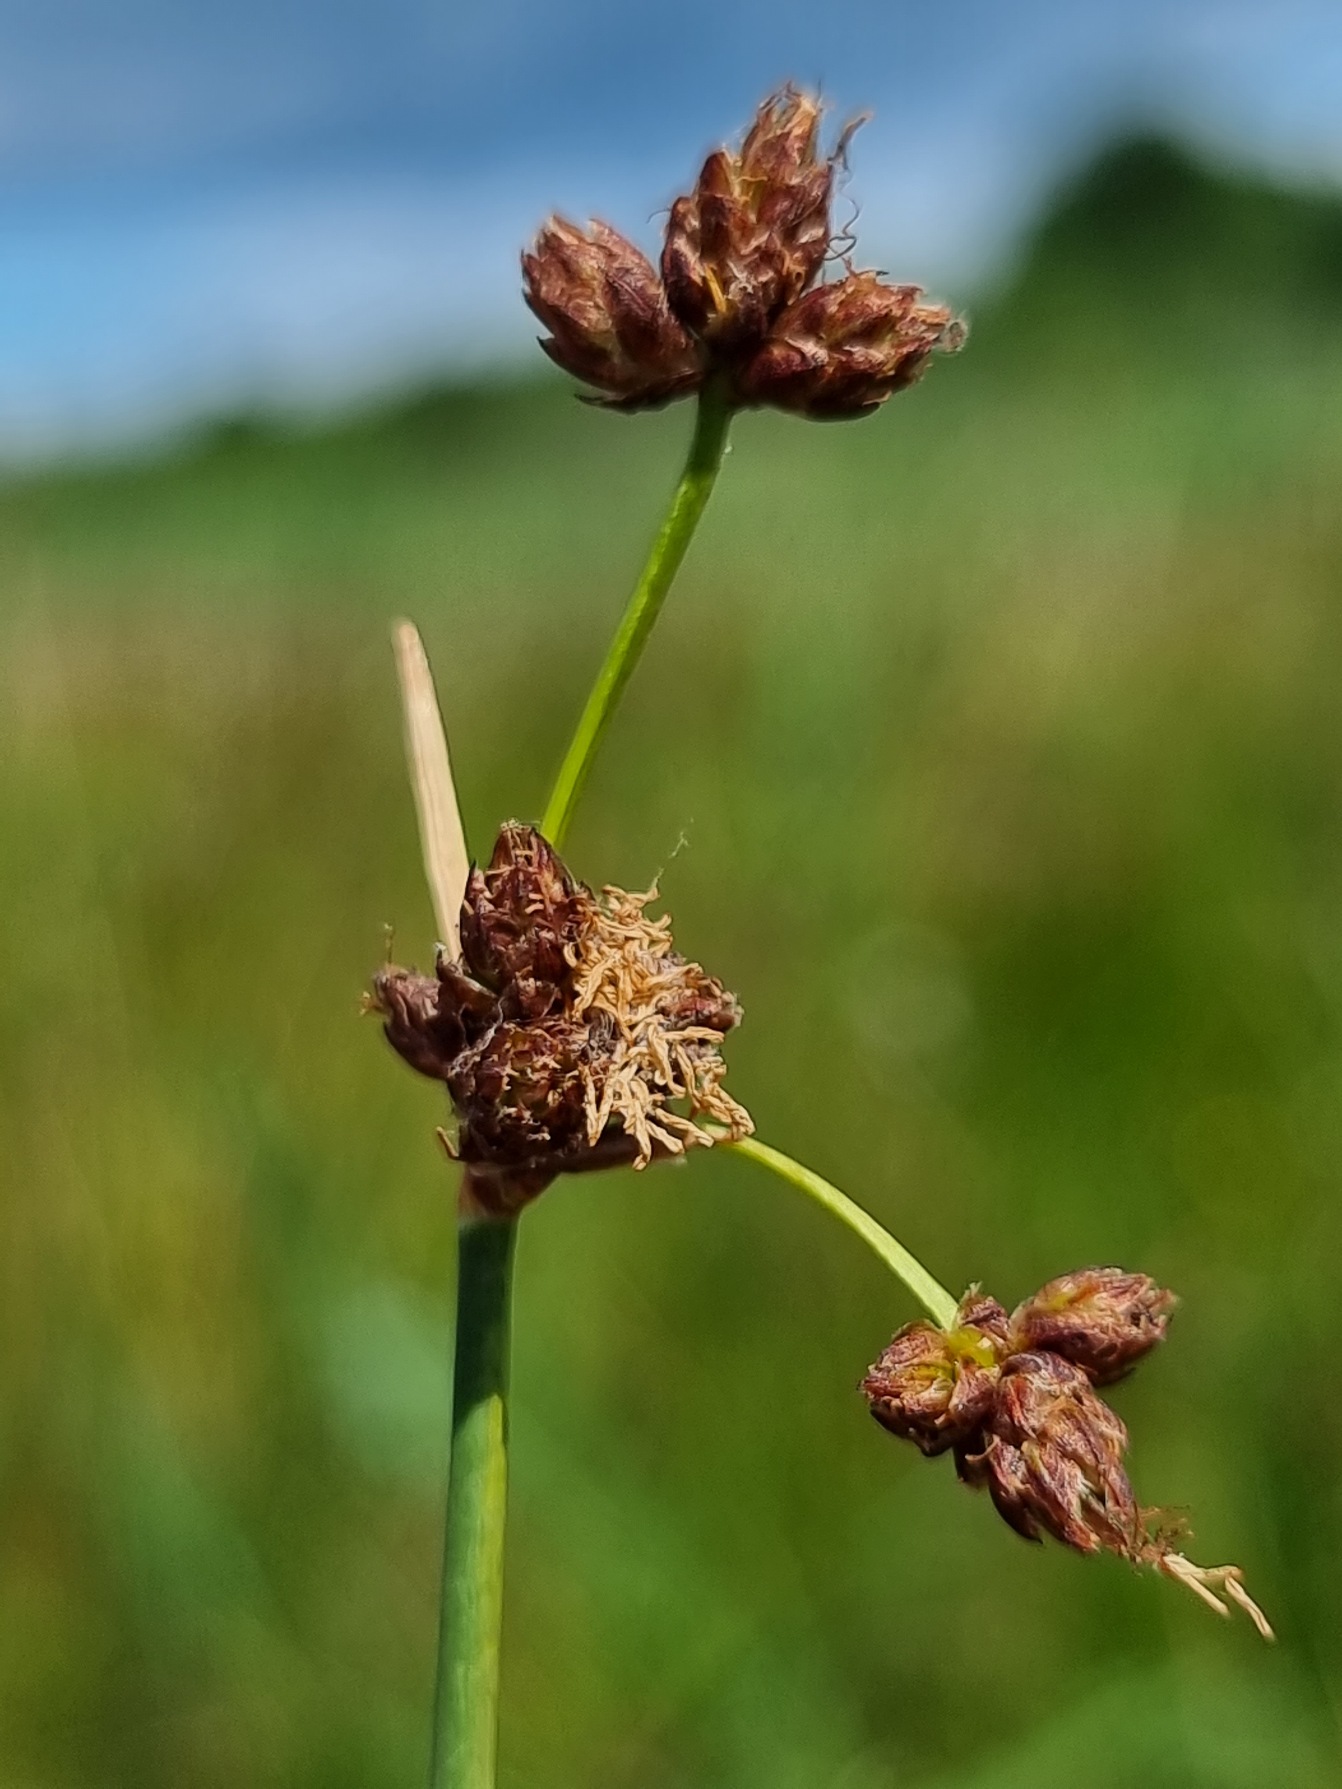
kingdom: Plantae
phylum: Tracheophyta
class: Liliopsida
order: Poales
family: Cyperaceae
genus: Schoenoplectus
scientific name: Schoenoplectus tabernaemontani
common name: Blågrøn kogleaks
